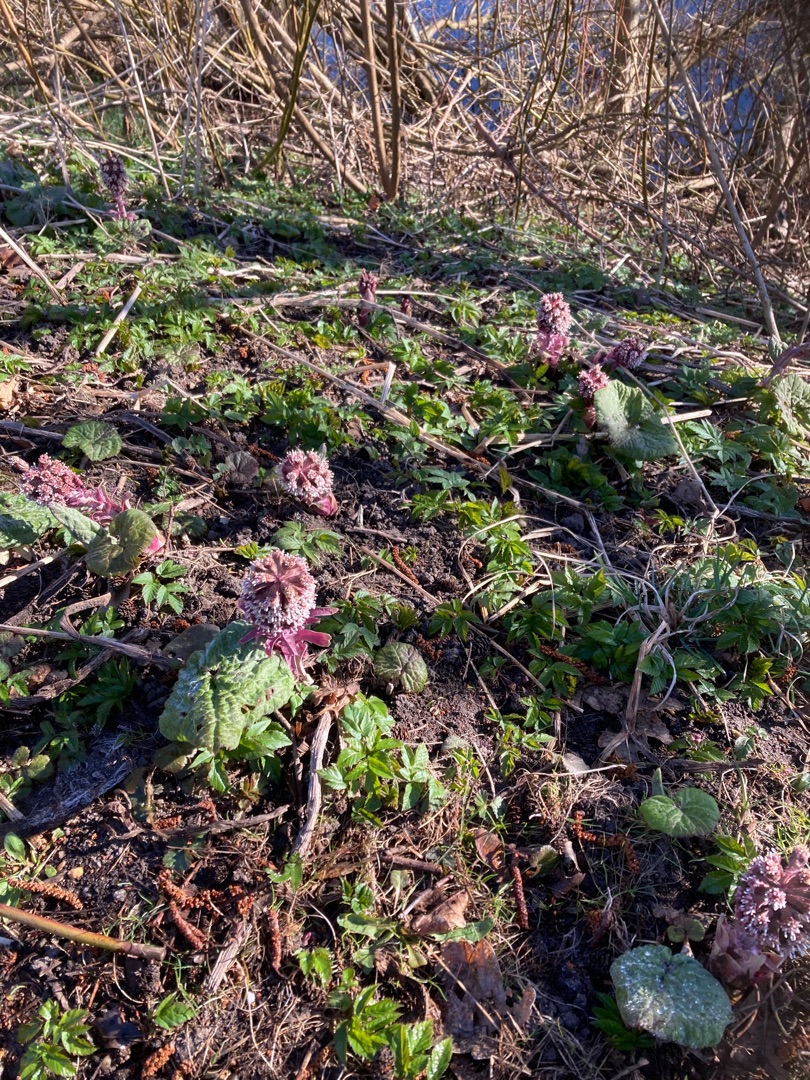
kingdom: Plantae
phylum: Tracheophyta
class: Magnoliopsida
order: Asterales
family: Asteraceae
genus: Petasites
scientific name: Petasites hybridus
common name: Rød hestehov
